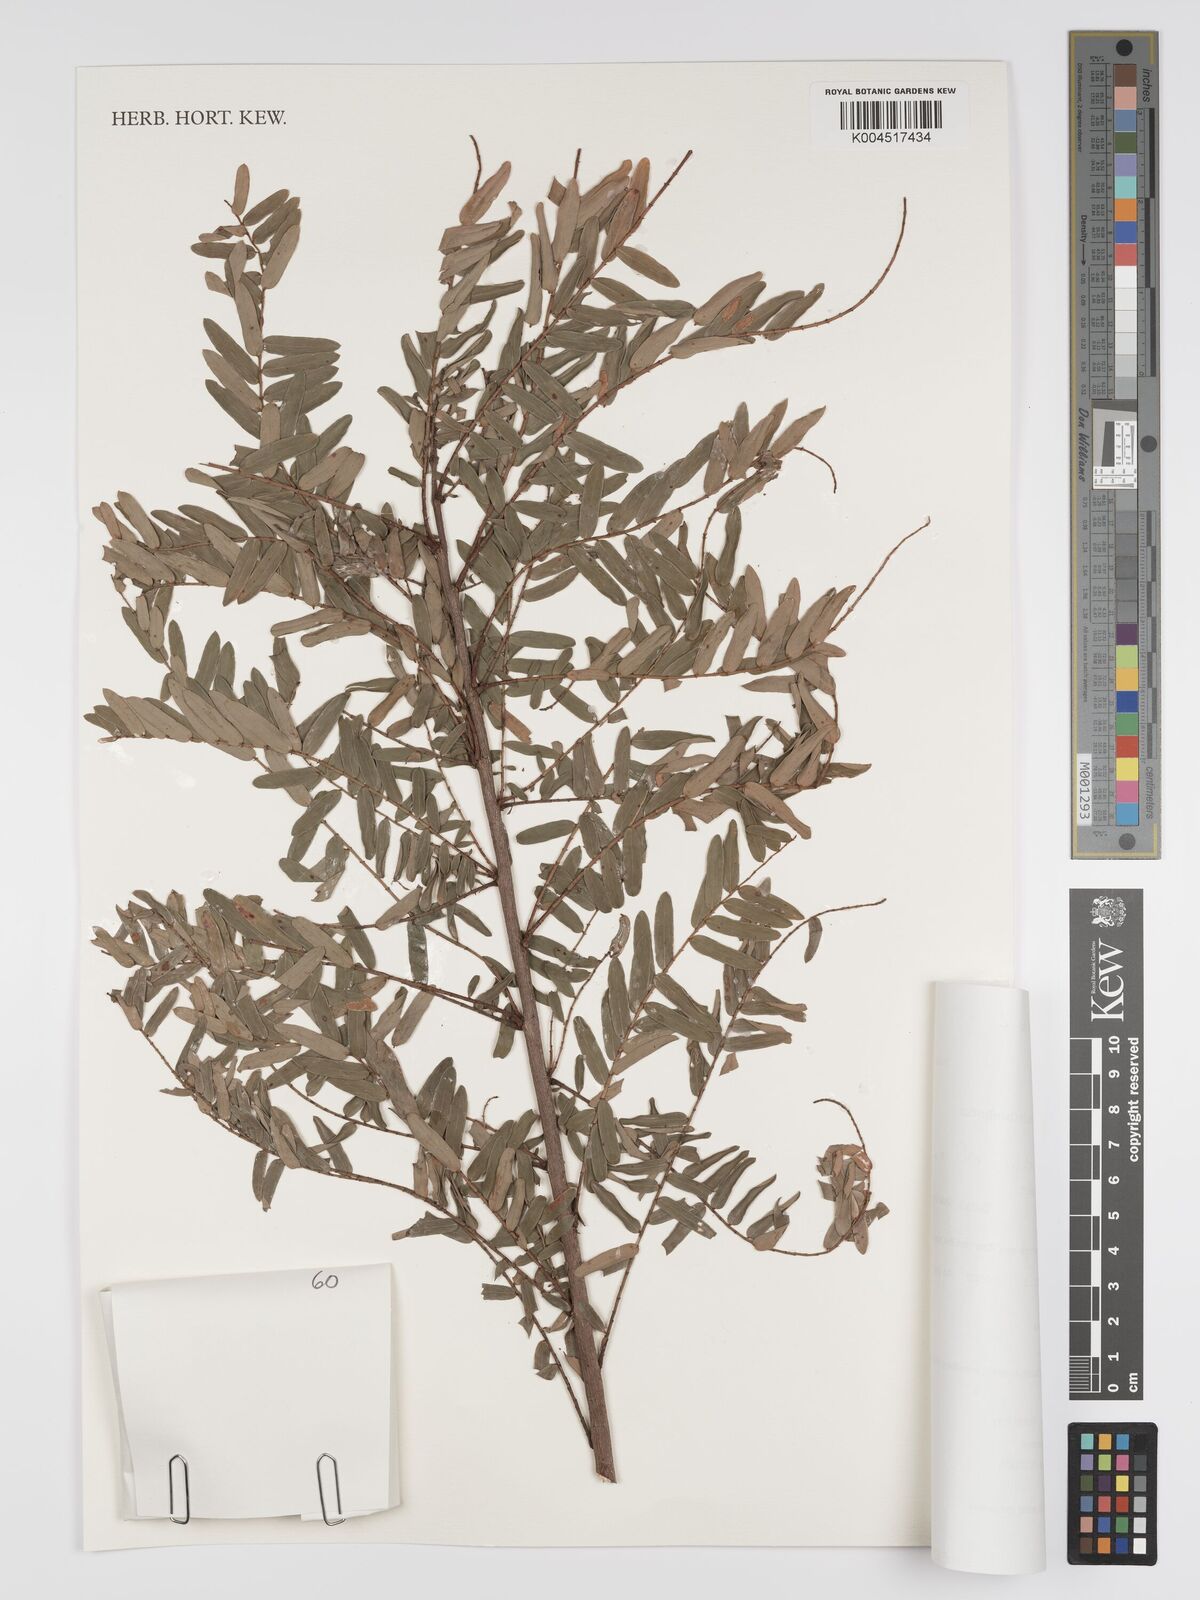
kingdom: Plantae
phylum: Tracheophyta
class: Magnoliopsida
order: Malpighiales
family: Phyllanthaceae
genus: Phyllanthus
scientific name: Phyllanthus emblica
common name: Indian gooseberry
